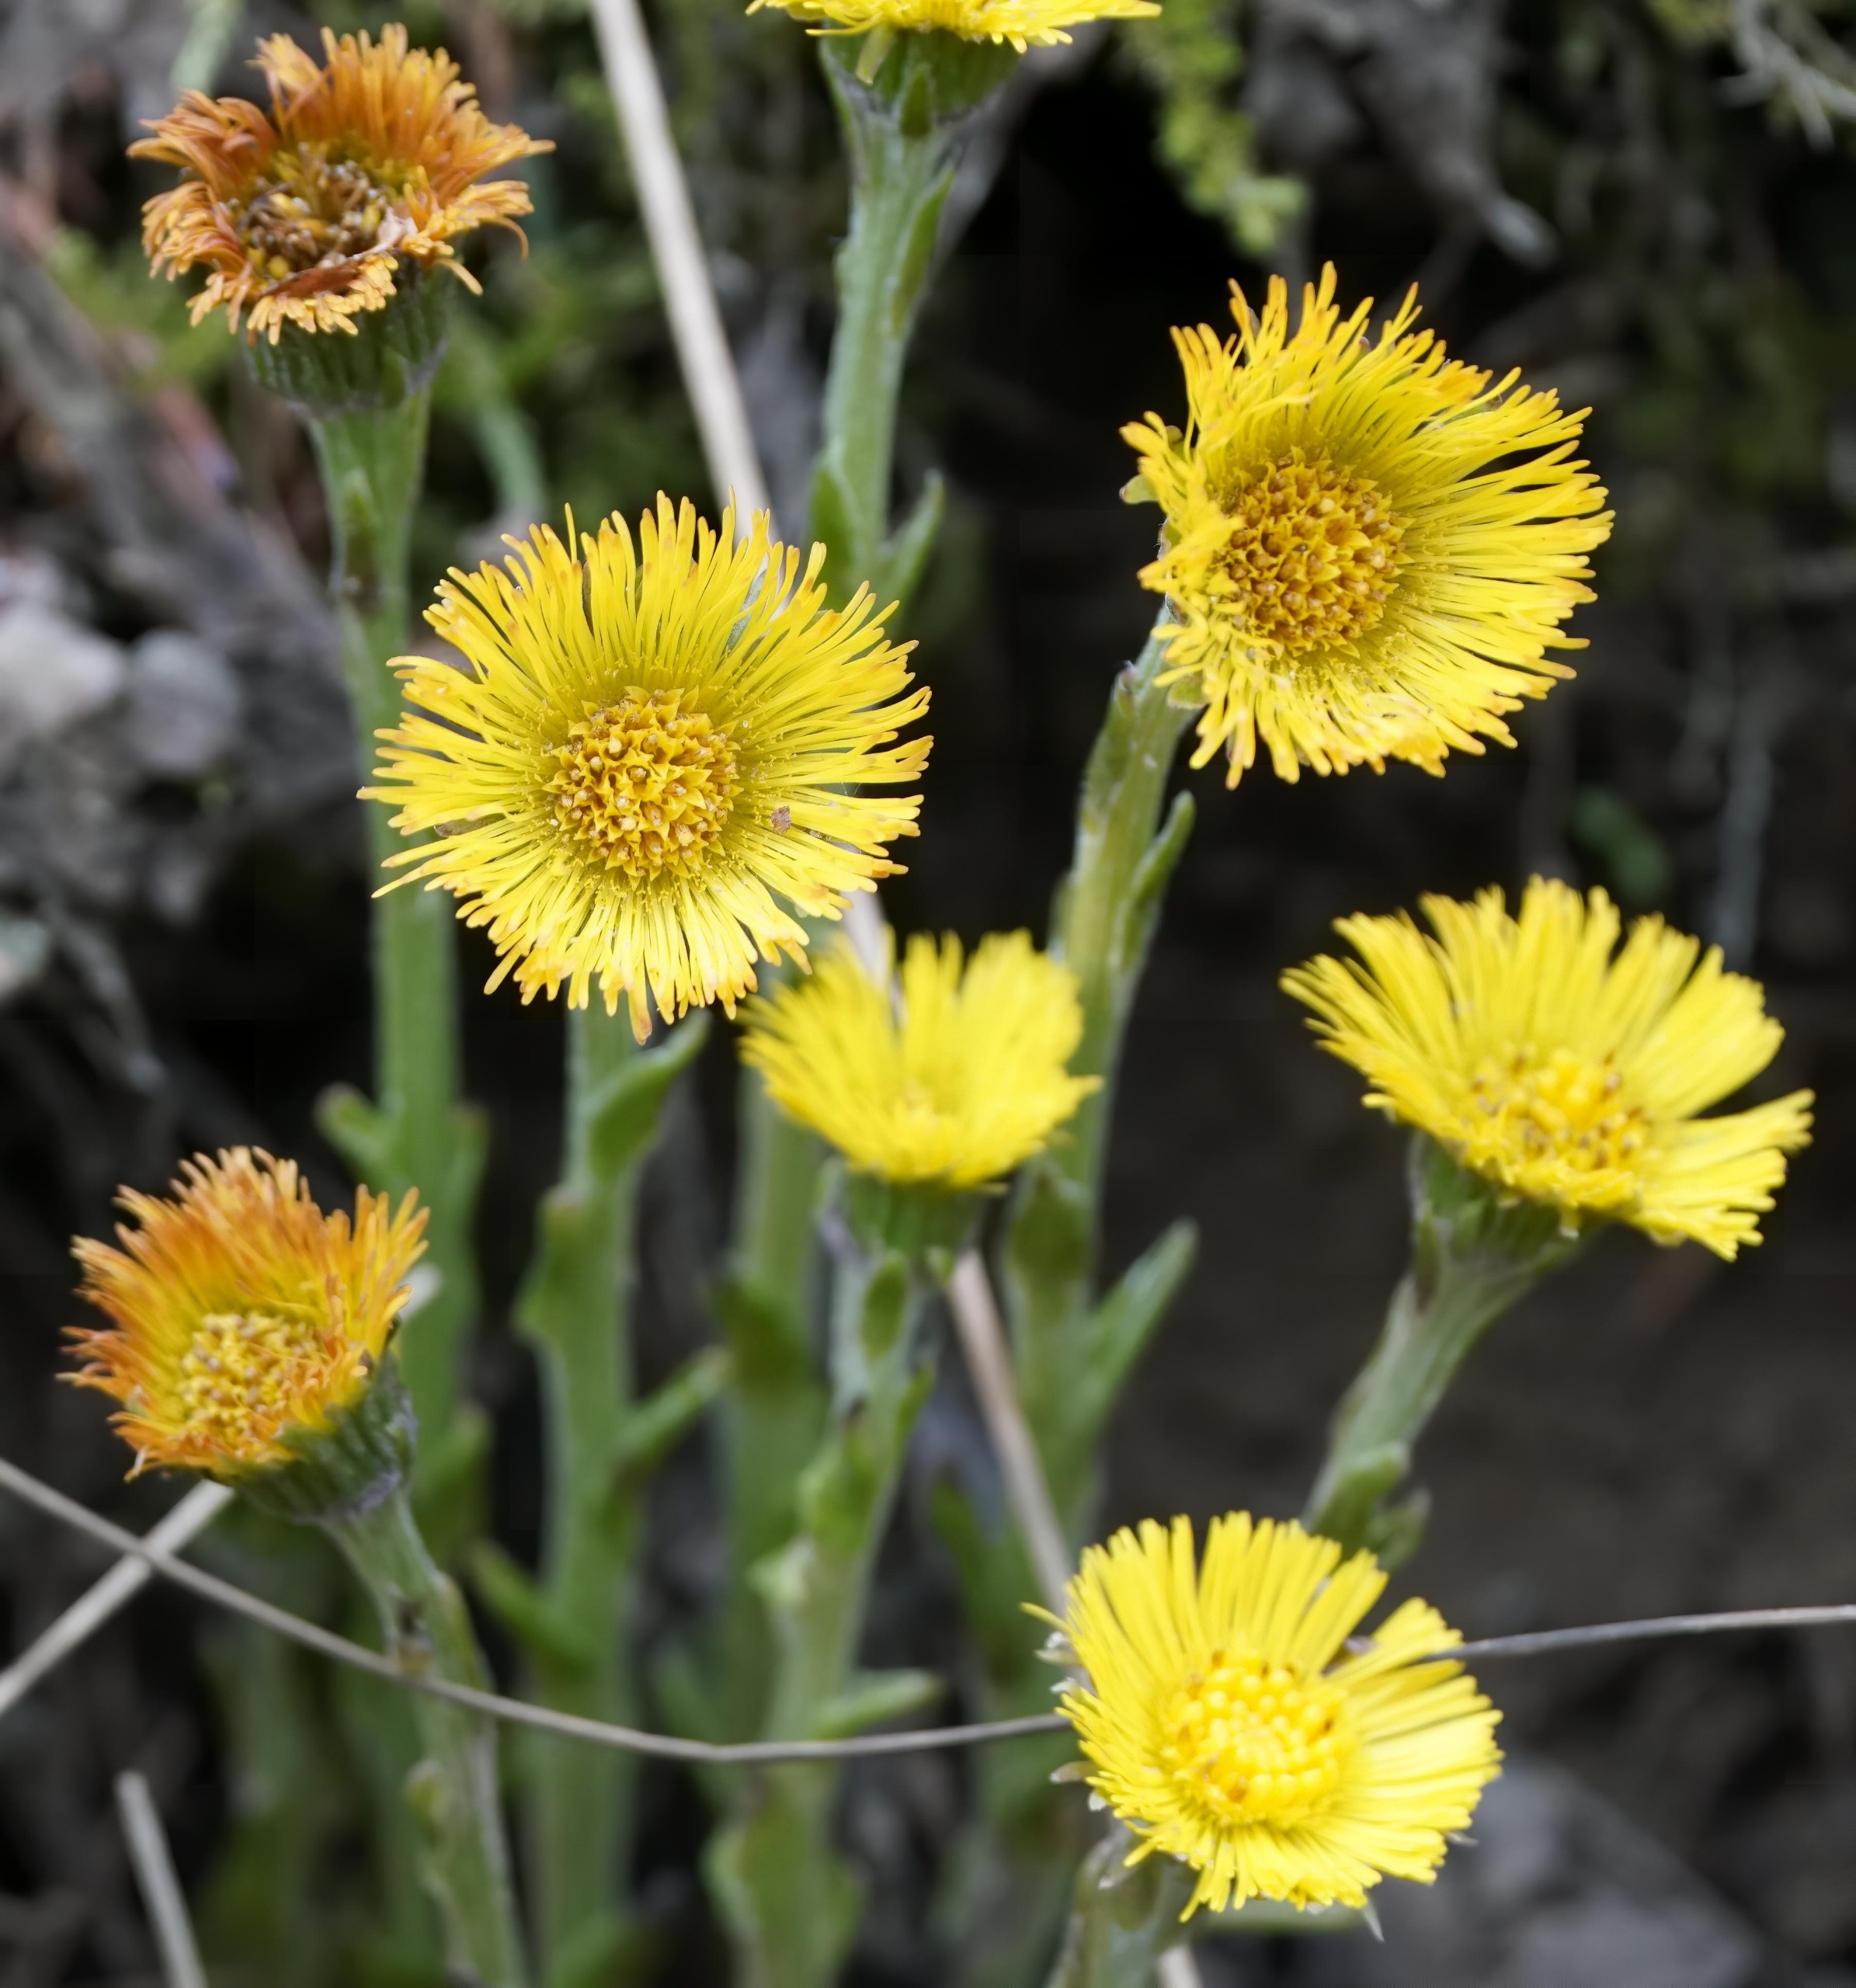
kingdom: Plantae
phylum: Tracheophyta
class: Magnoliopsida
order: Asterales
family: Asteraceae
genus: Tussilago
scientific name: Tussilago farfara
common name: Følfod
